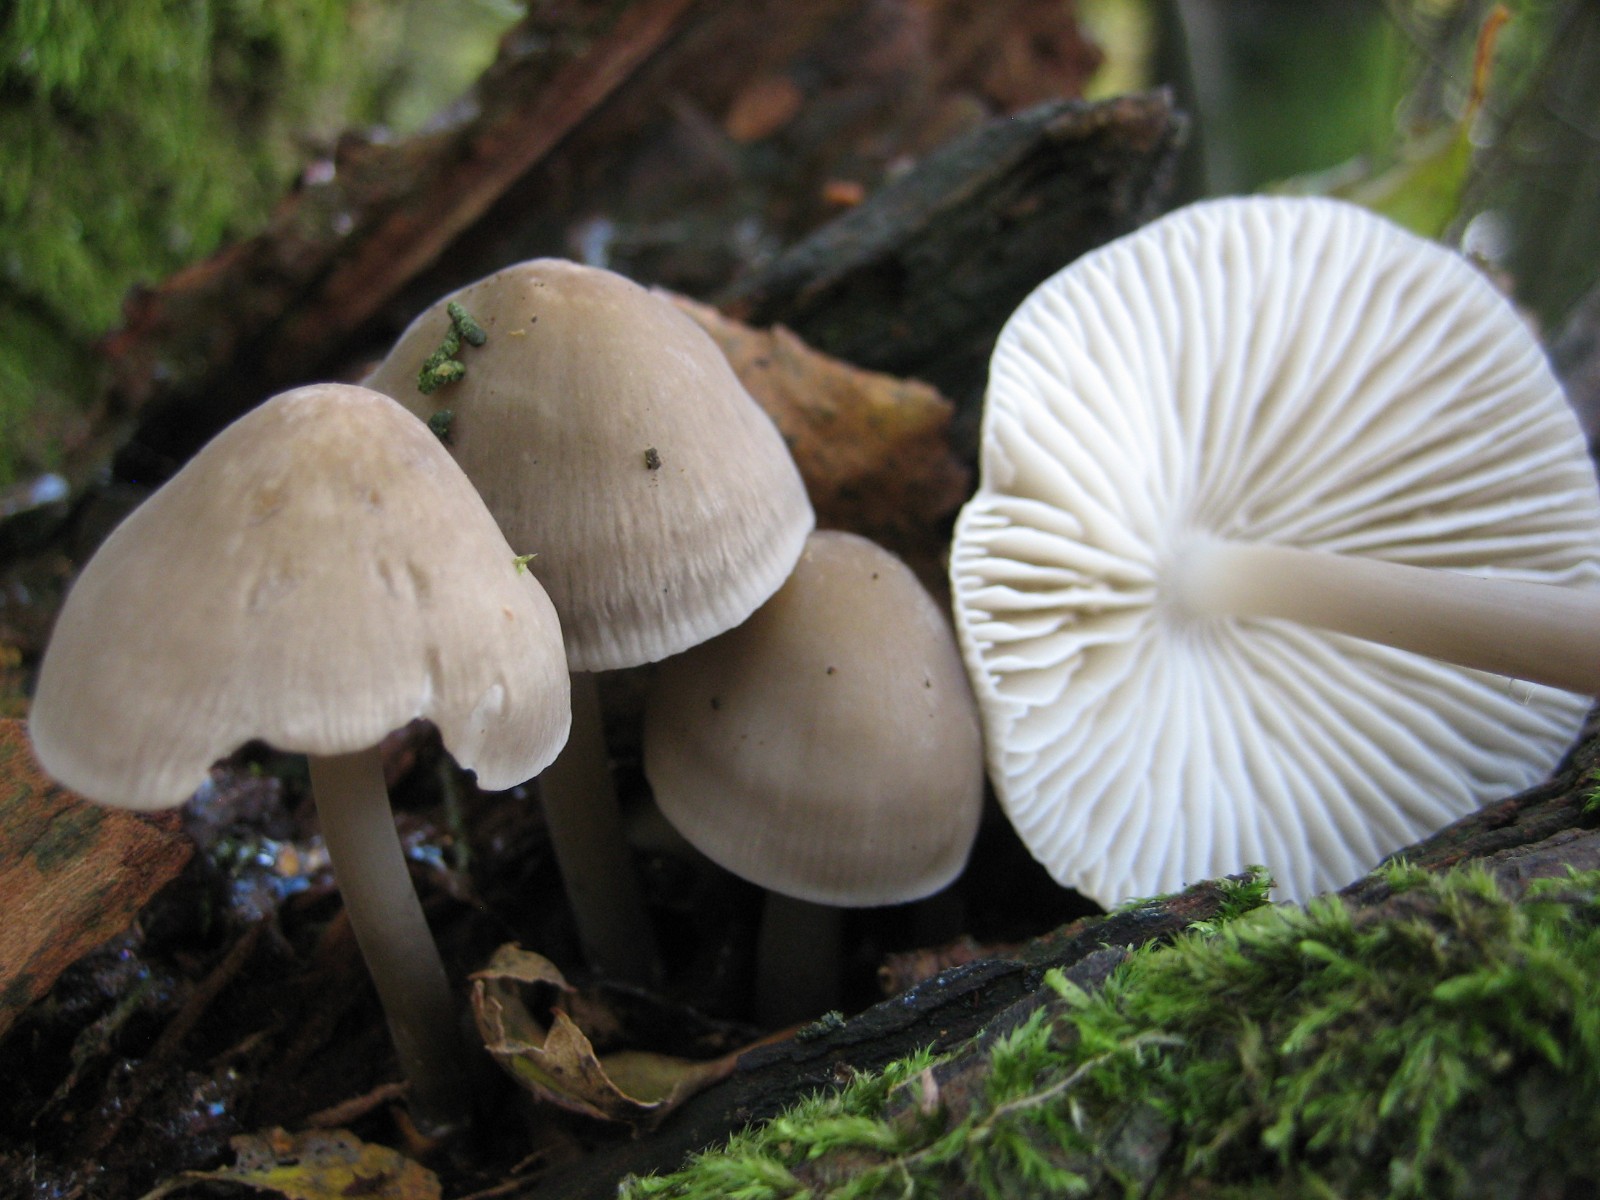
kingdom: Fungi
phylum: Basidiomycota
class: Agaricomycetes
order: Agaricales
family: Mycenaceae
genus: Mycena
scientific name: Mycena galericulata
